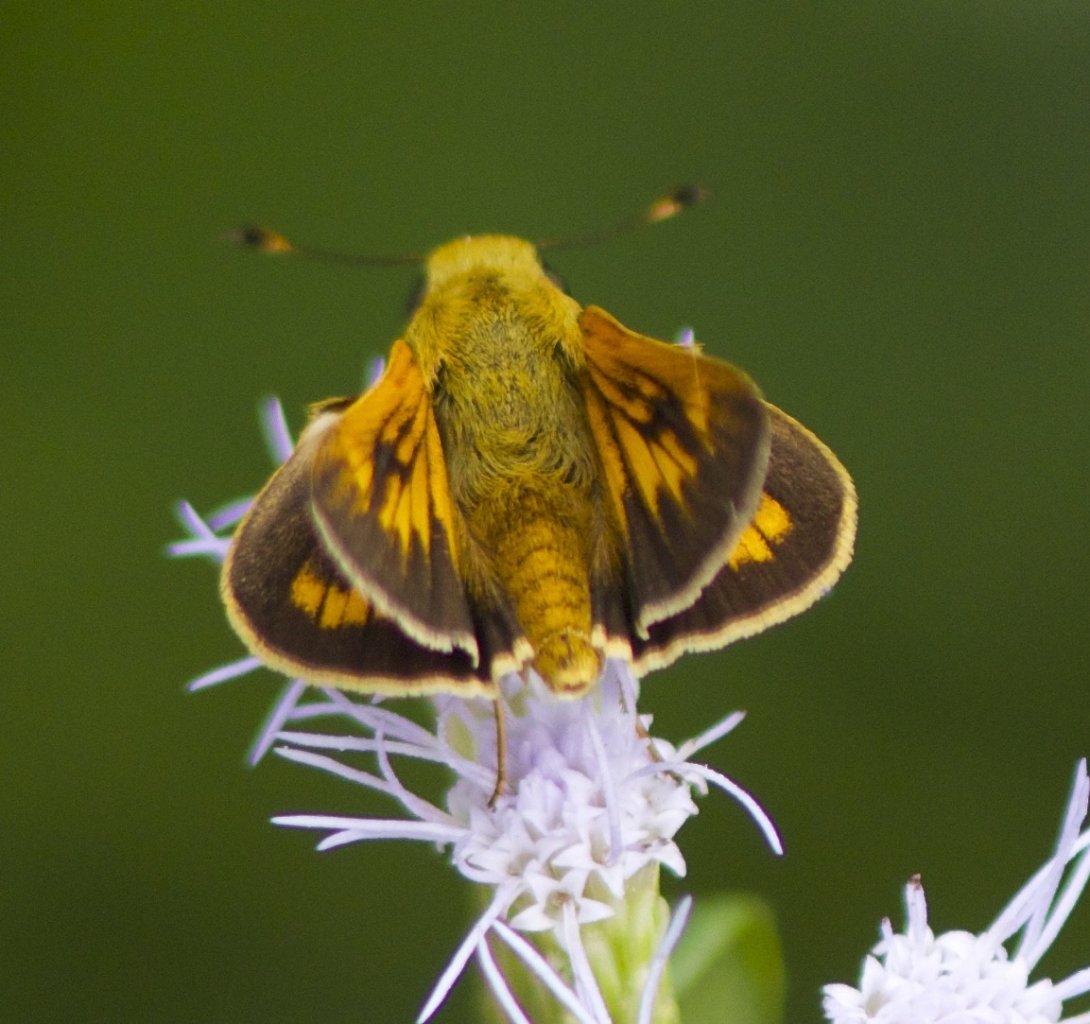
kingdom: Animalia
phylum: Arthropoda
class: Insecta
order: Lepidoptera
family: Hesperiidae
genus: Mellana
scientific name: Mellana eulogius
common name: Common Mellana
